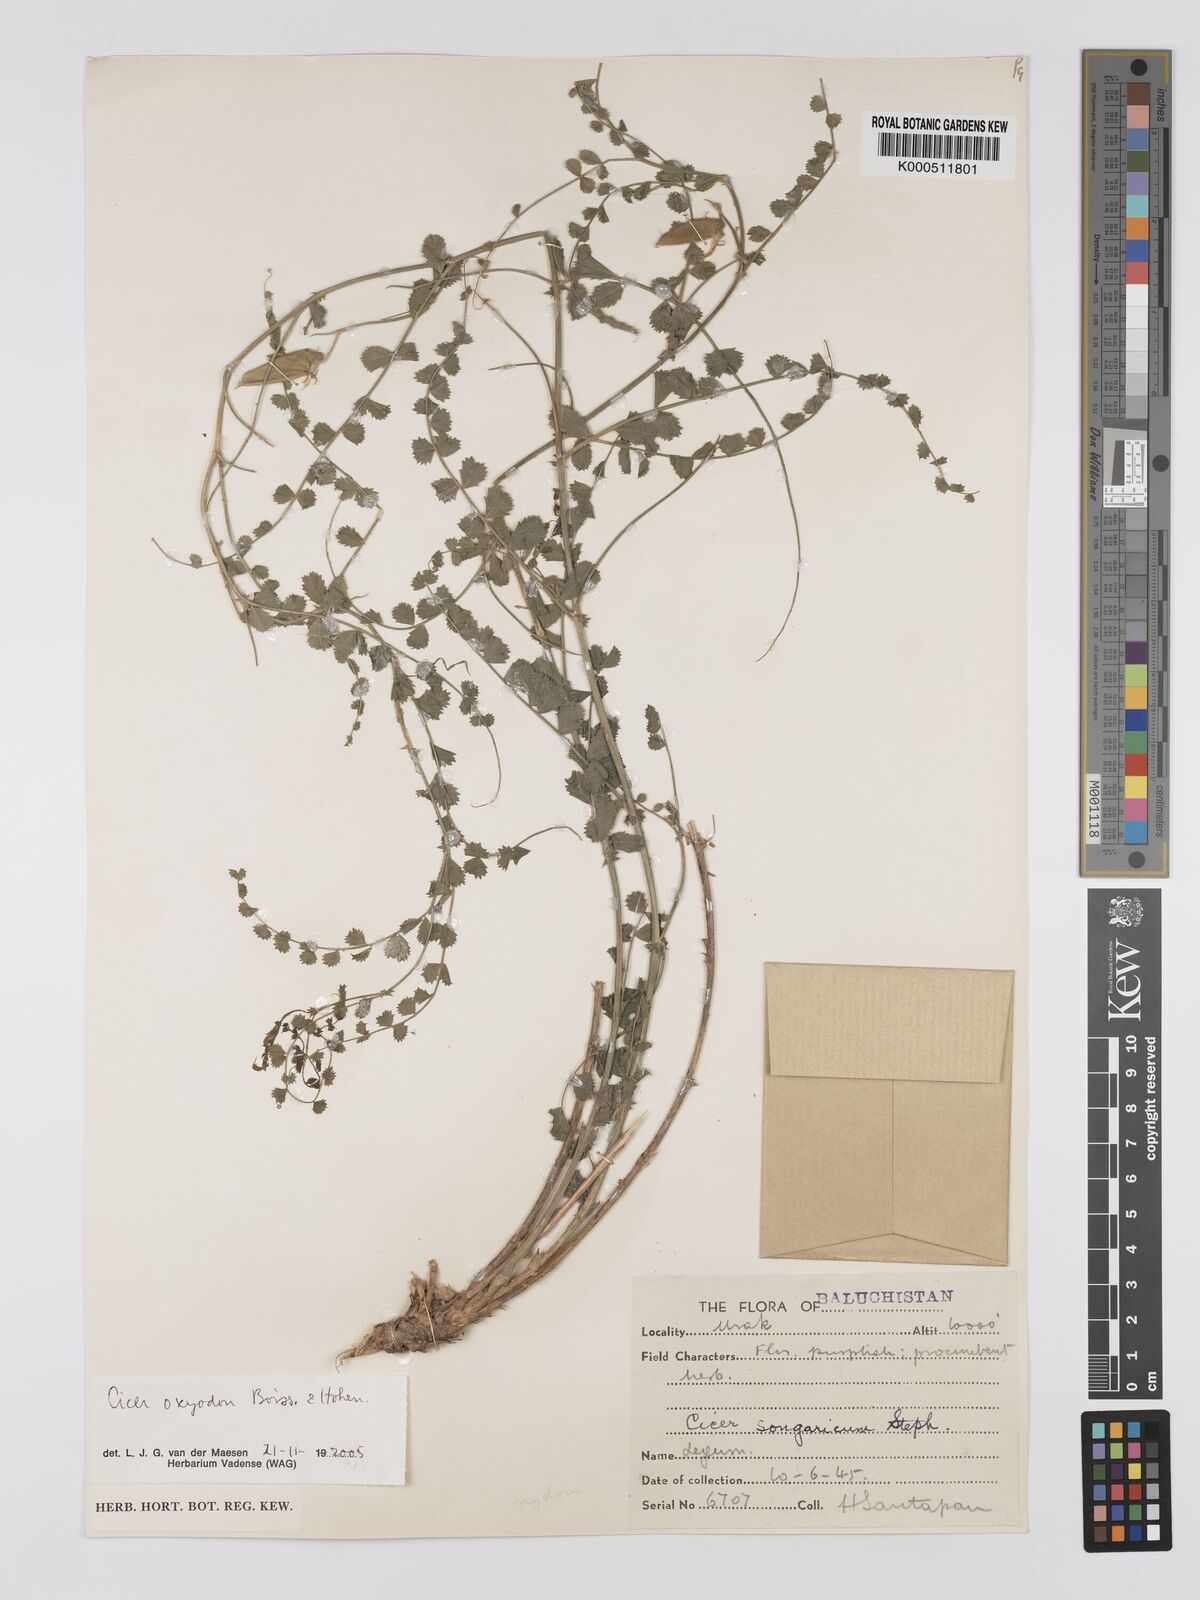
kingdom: Plantae
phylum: Tracheophyta
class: Magnoliopsida
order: Fabales
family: Fabaceae
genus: Cicer
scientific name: Cicer oxyodon
